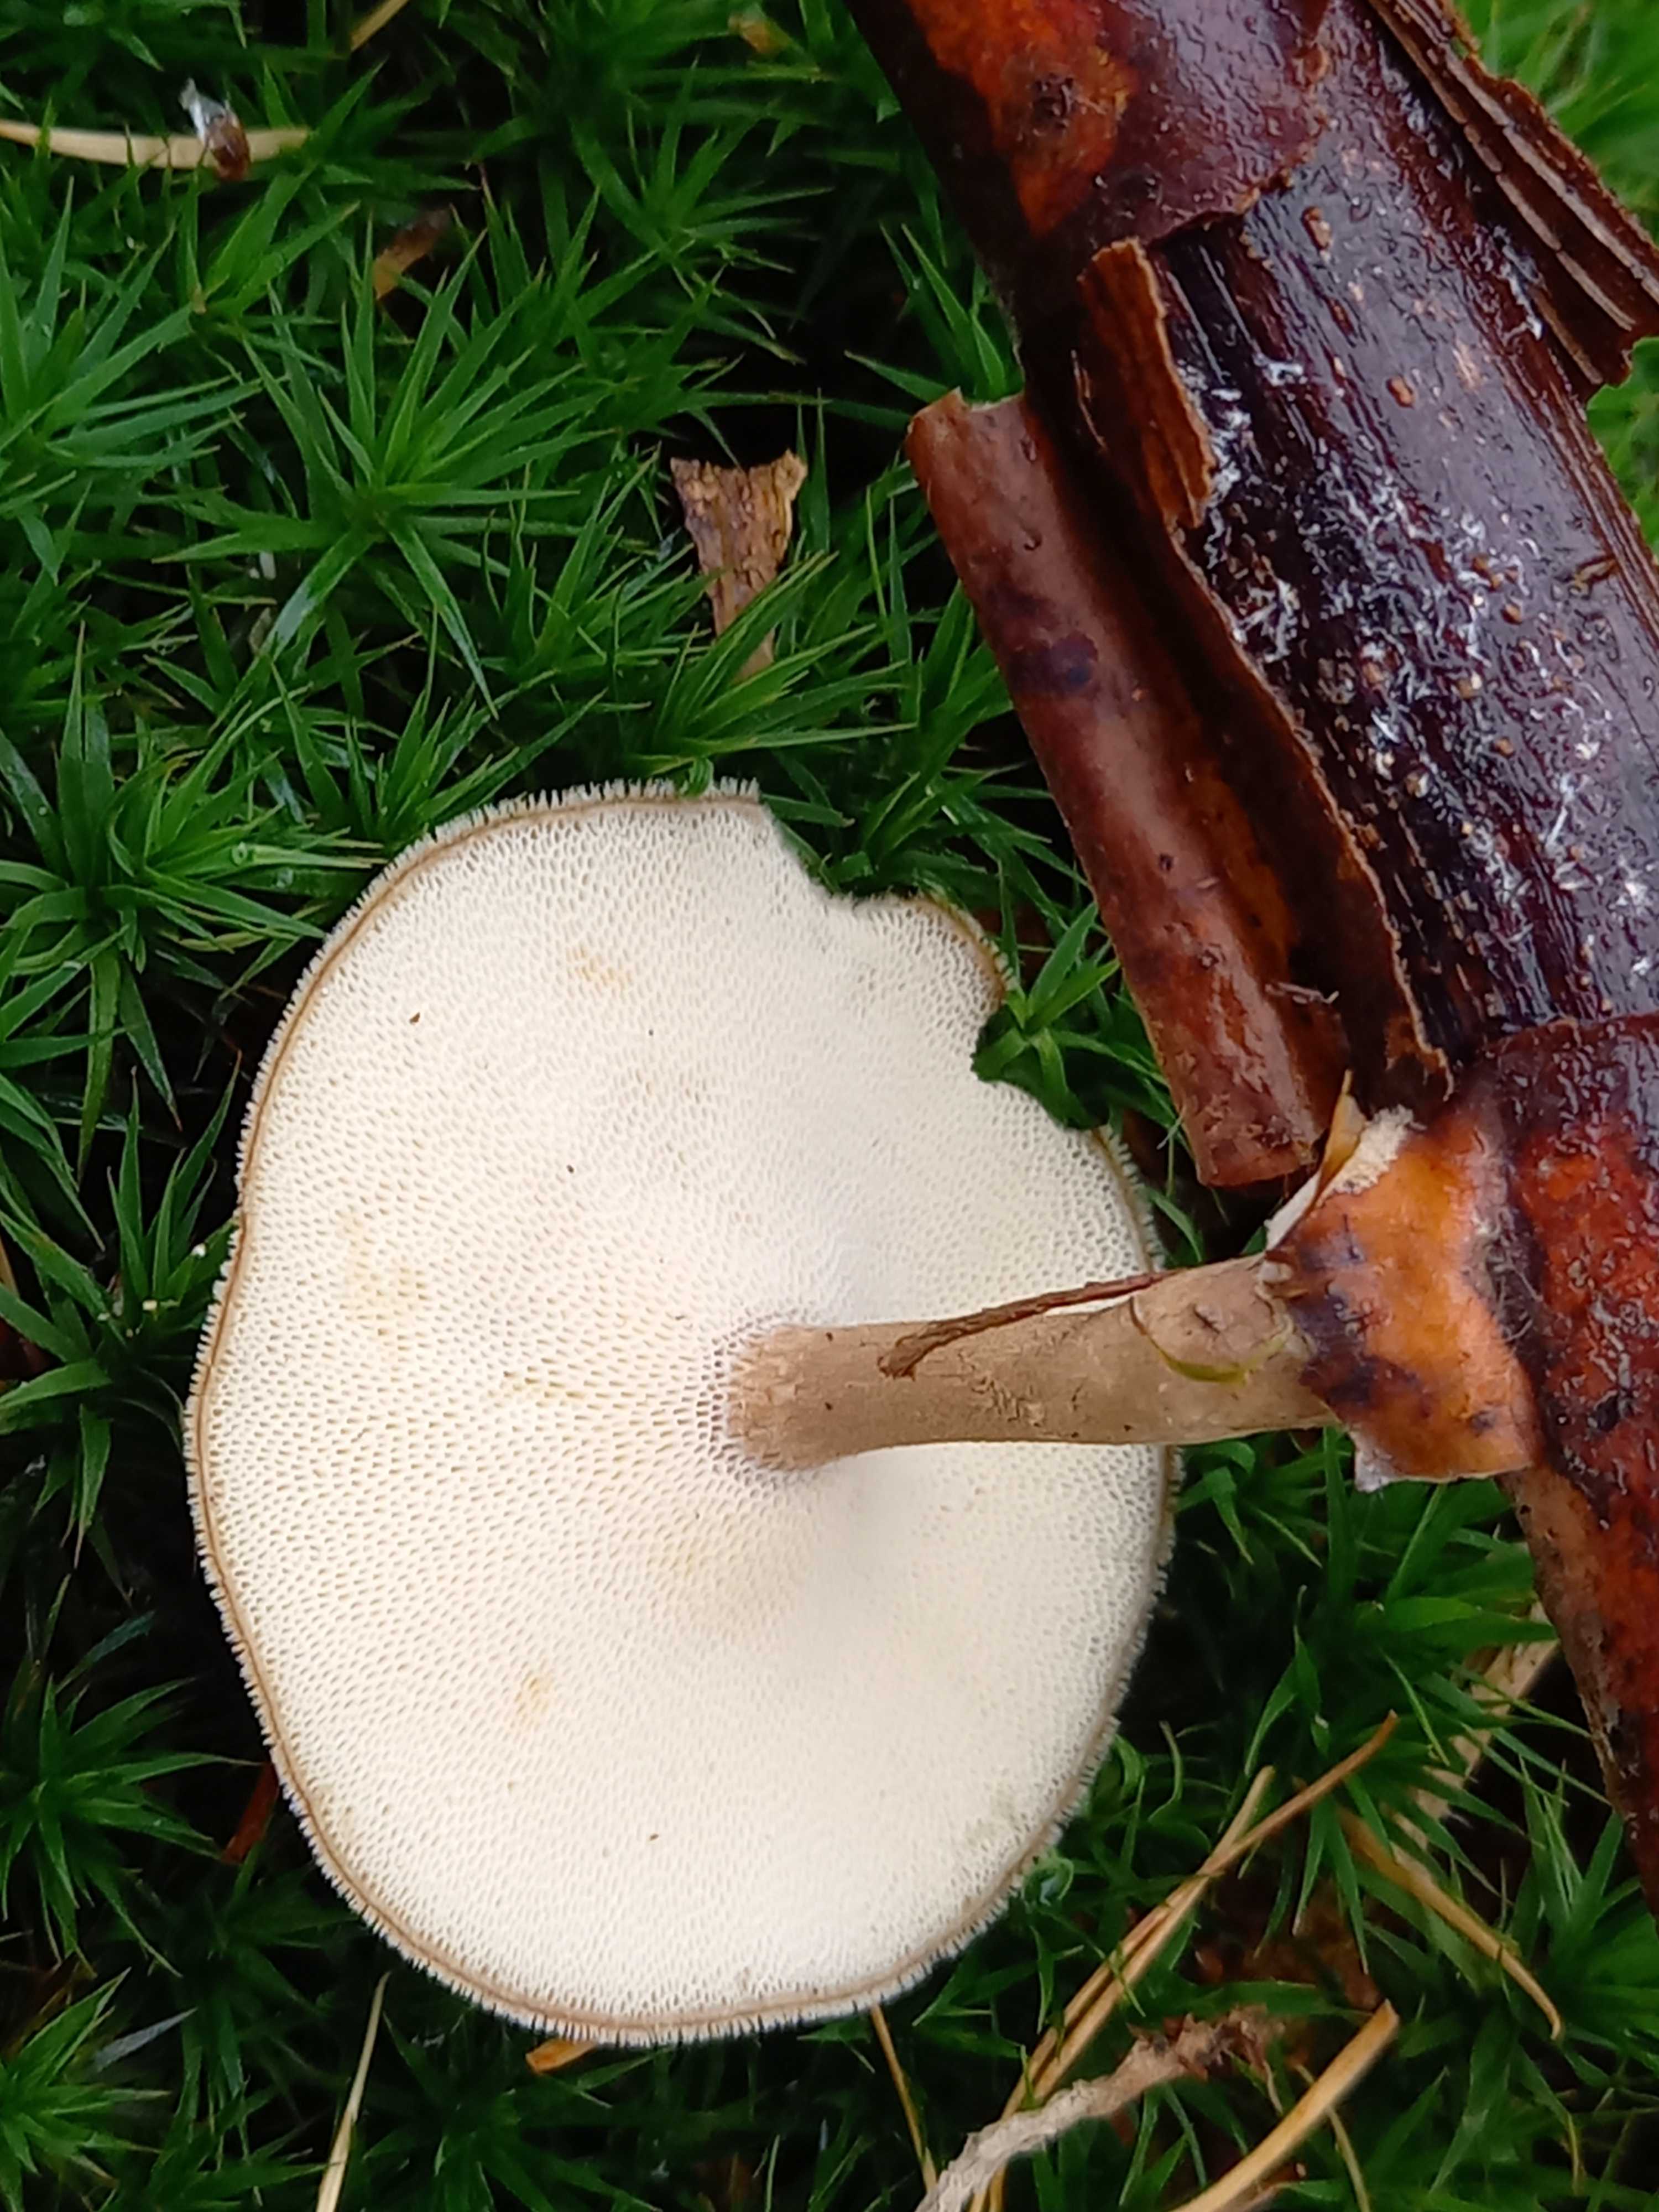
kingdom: Fungi
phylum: Basidiomycota
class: Agaricomycetes
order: Polyporales
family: Polyporaceae
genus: Lentinus
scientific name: Lentinus brumalis
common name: vinter-stilkporesvamp
